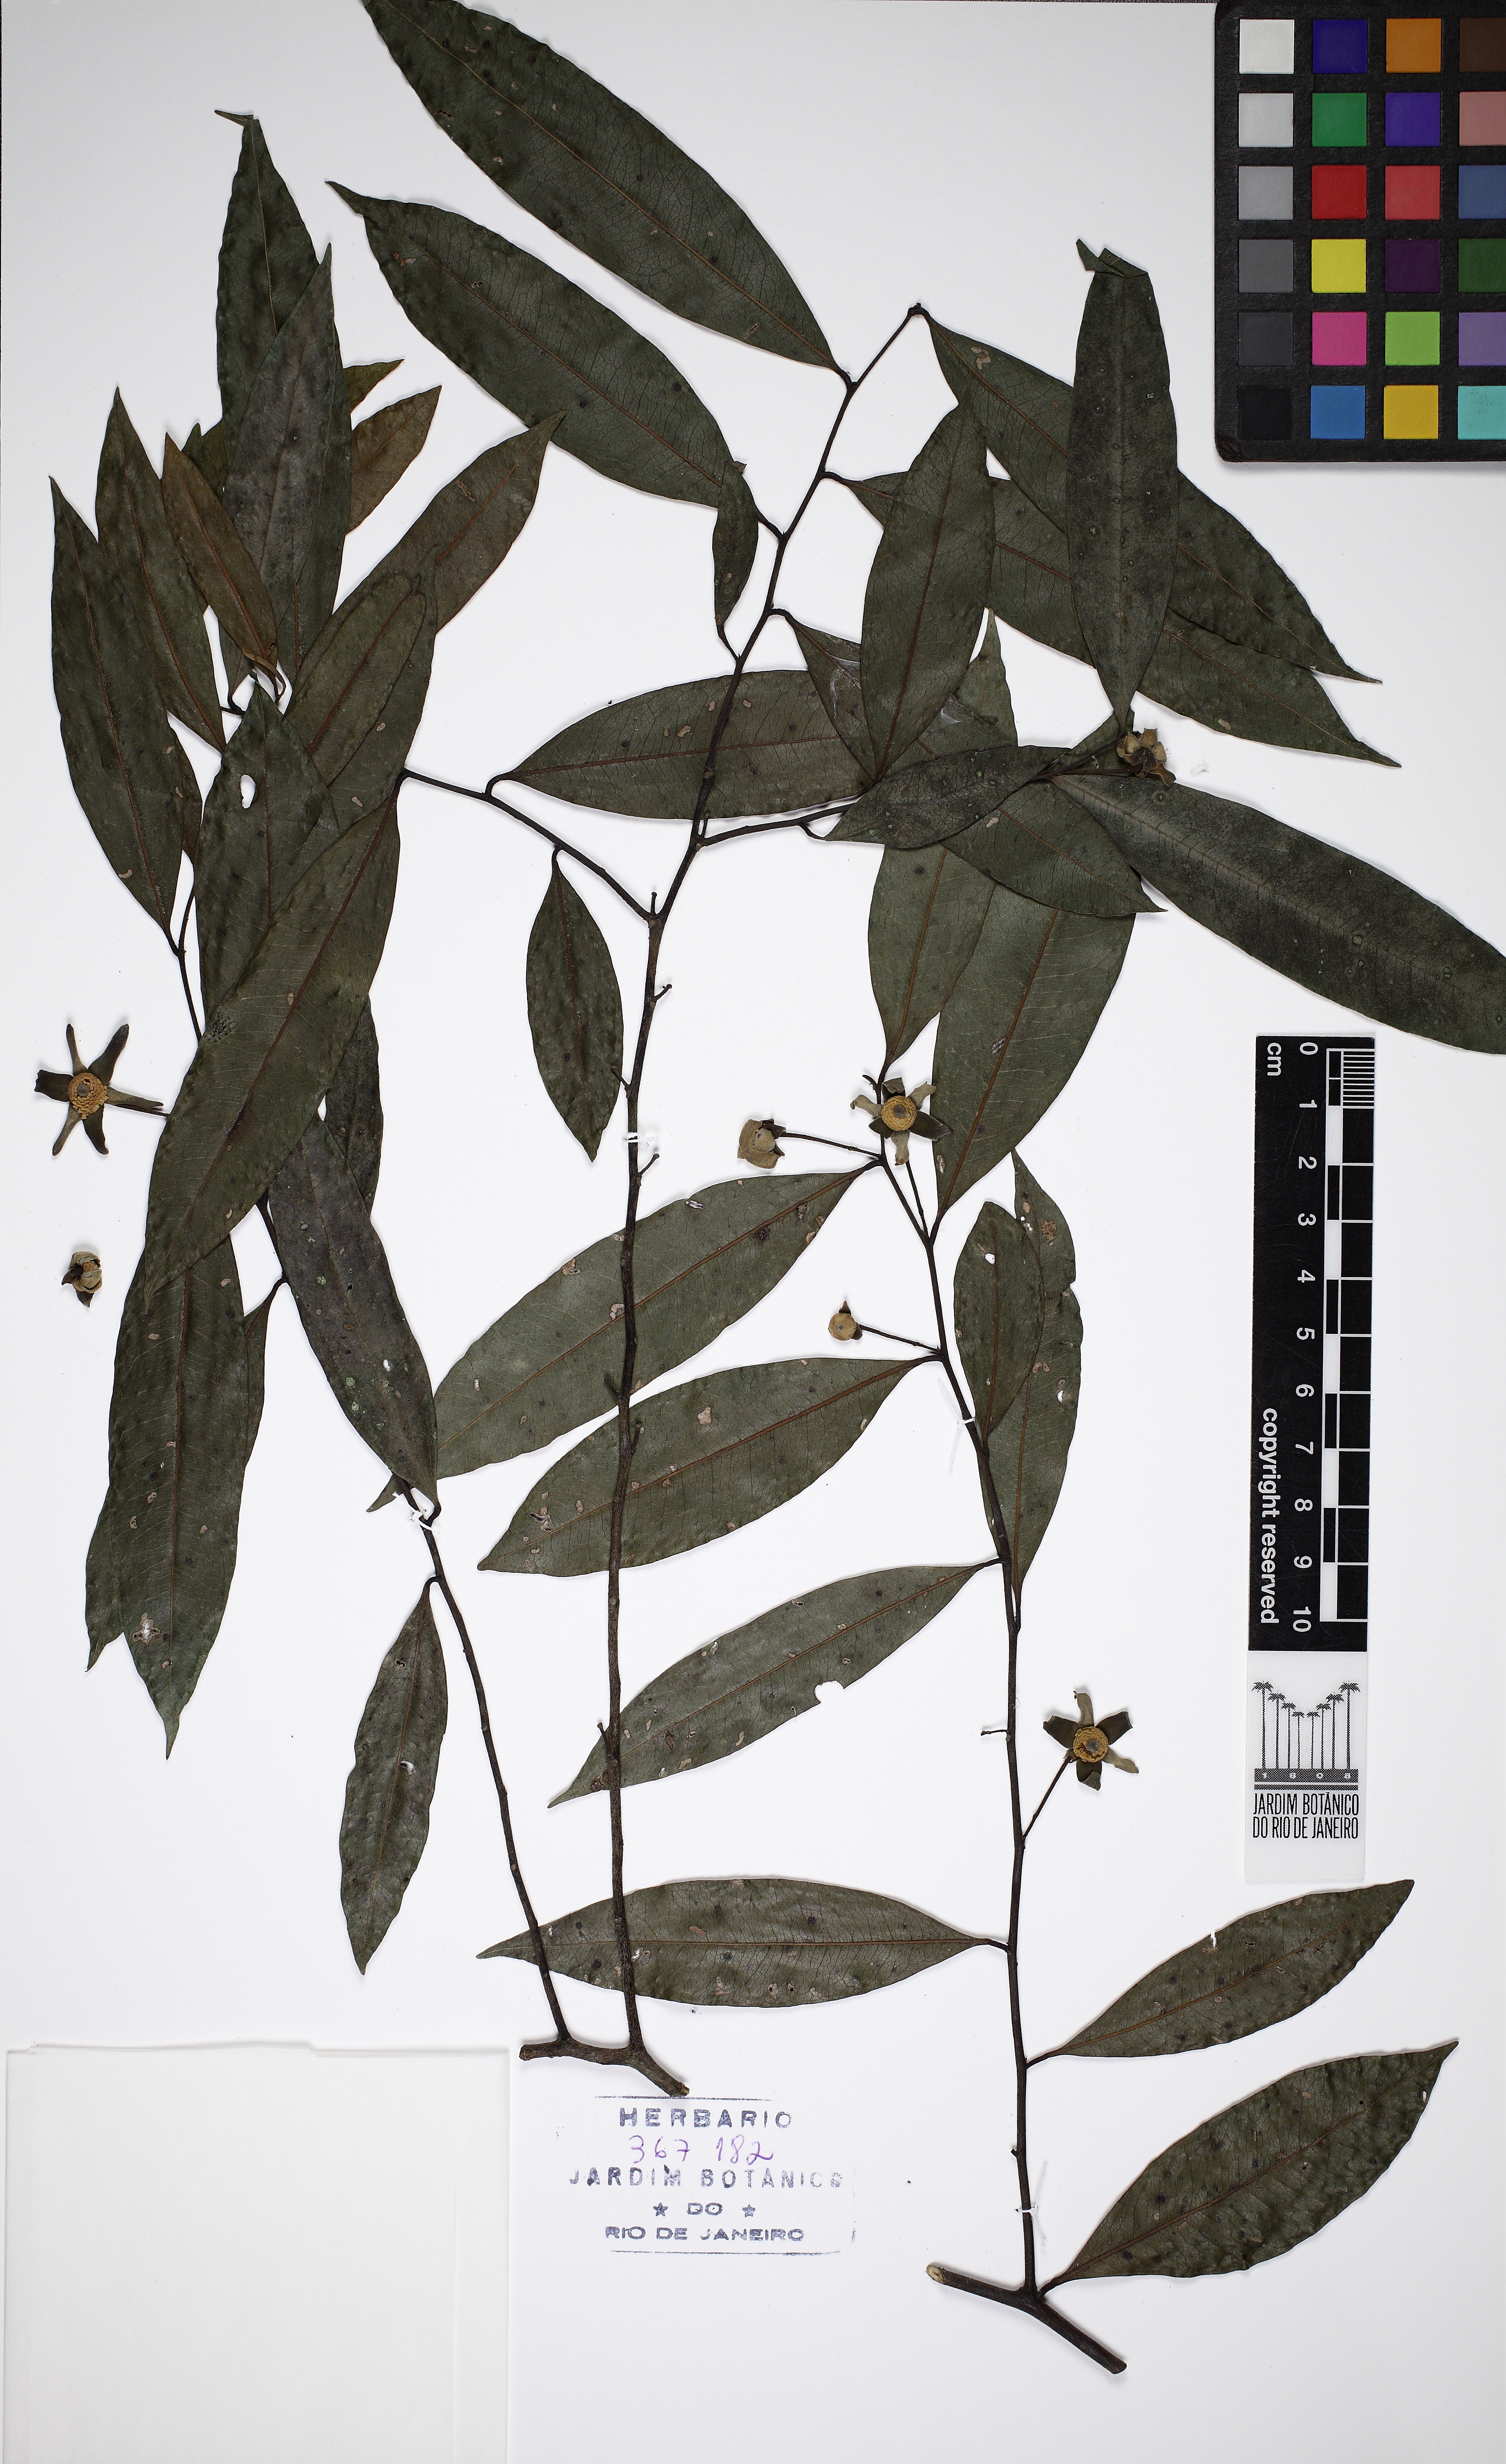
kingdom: Plantae
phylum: Tracheophyta
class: Magnoliopsida
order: Magnoliales
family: Annonaceae
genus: Guatteria
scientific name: Guatteria australis
